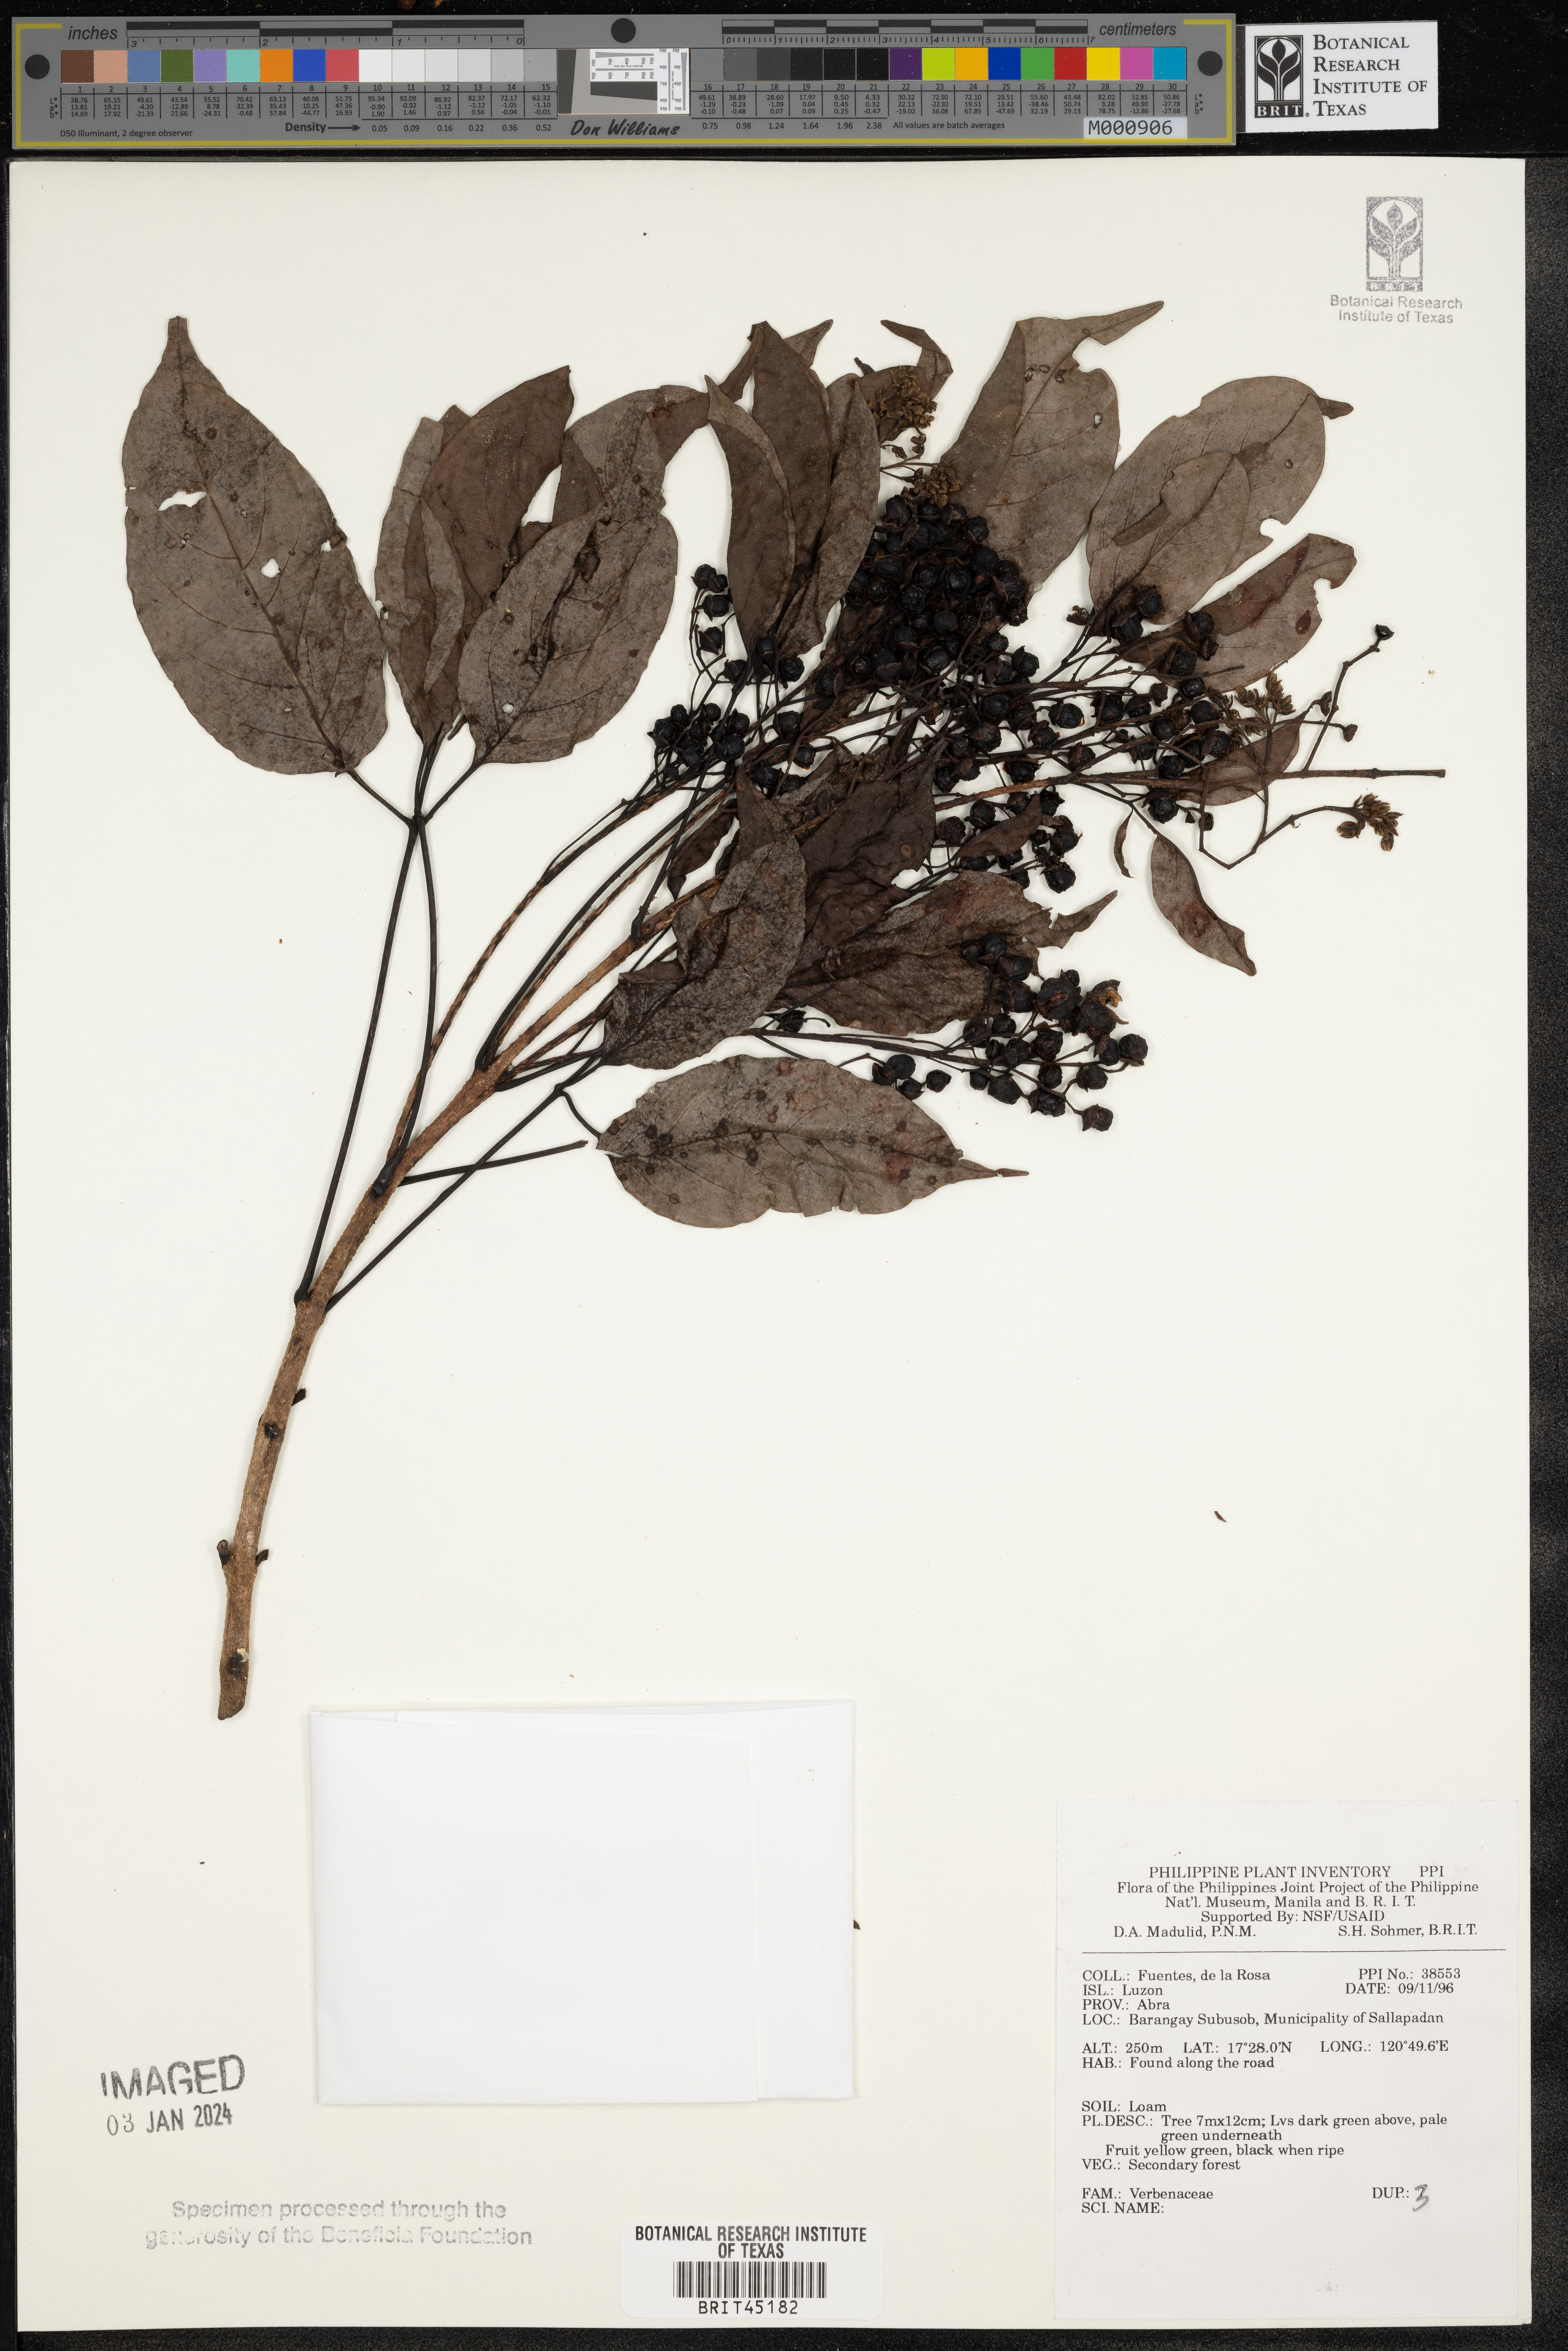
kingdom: Plantae
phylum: Tracheophyta
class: Magnoliopsida
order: Lamiales
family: Verbenaceae
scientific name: Verbenaceae
